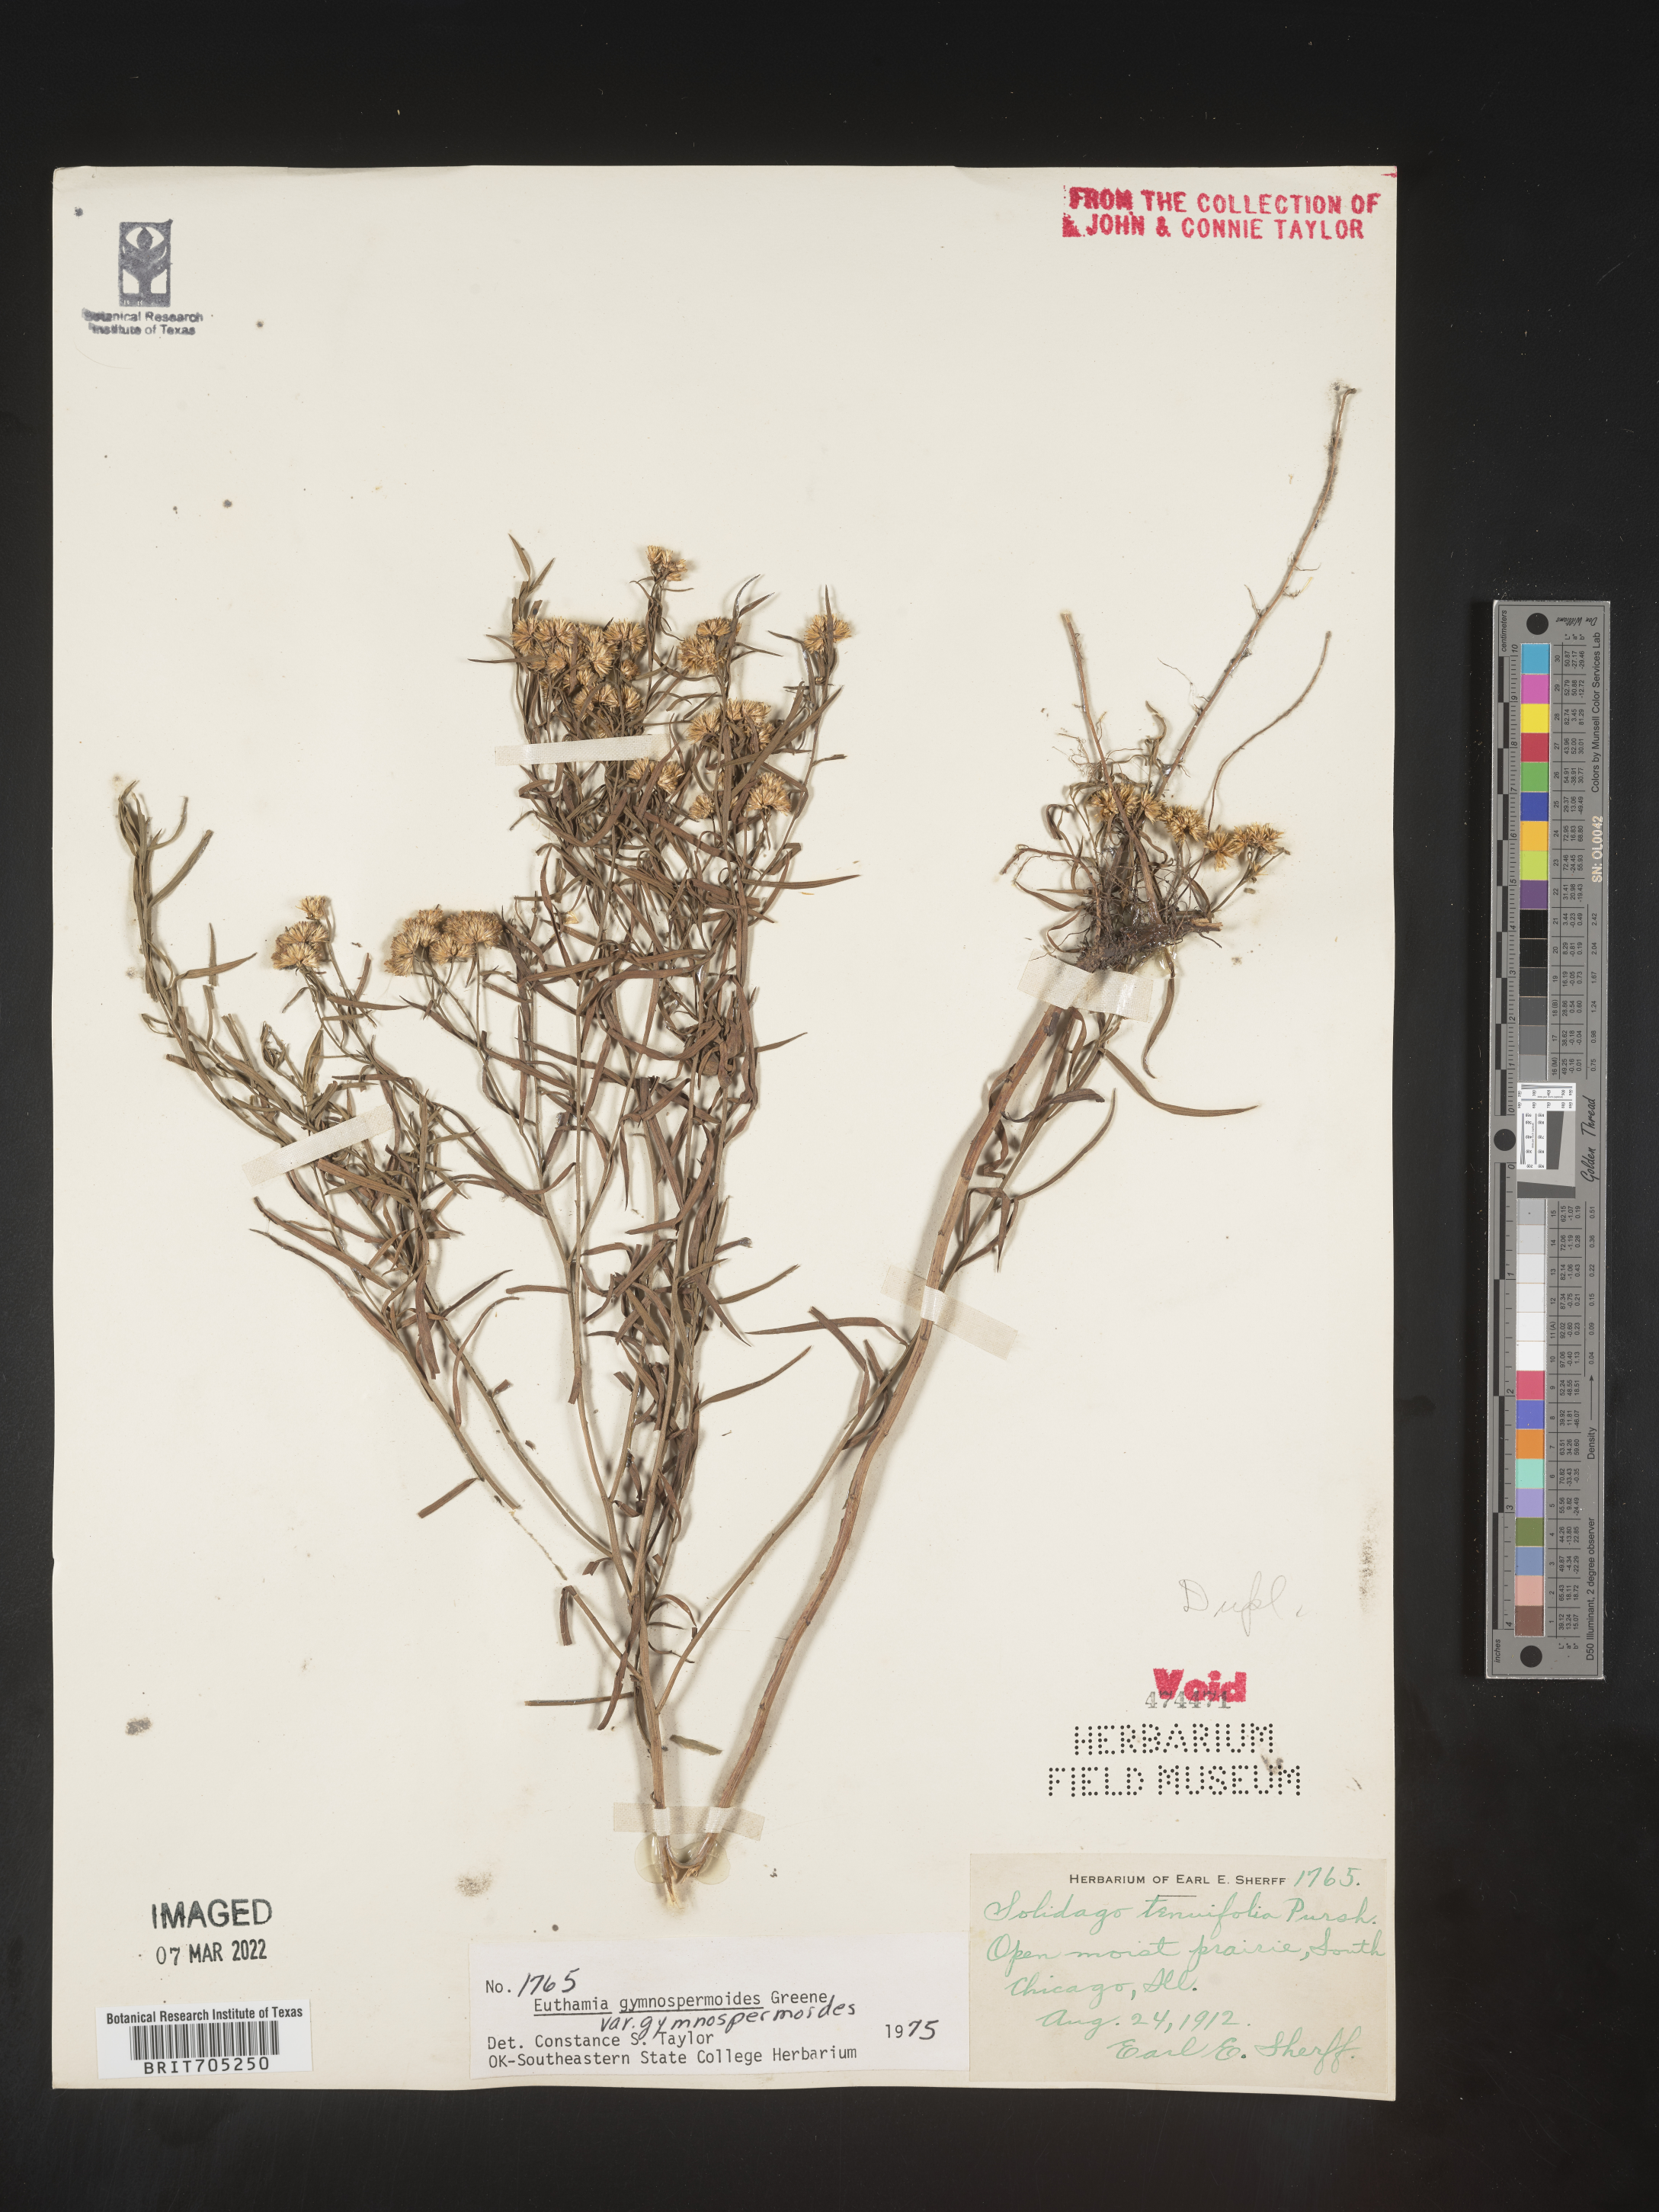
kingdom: Plantae
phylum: Tracheophyta
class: Magnoliopsida
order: Asterales
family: Asteraceae
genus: Euthamia
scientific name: Euthamia gymnospermoides
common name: Great plains goldentop
